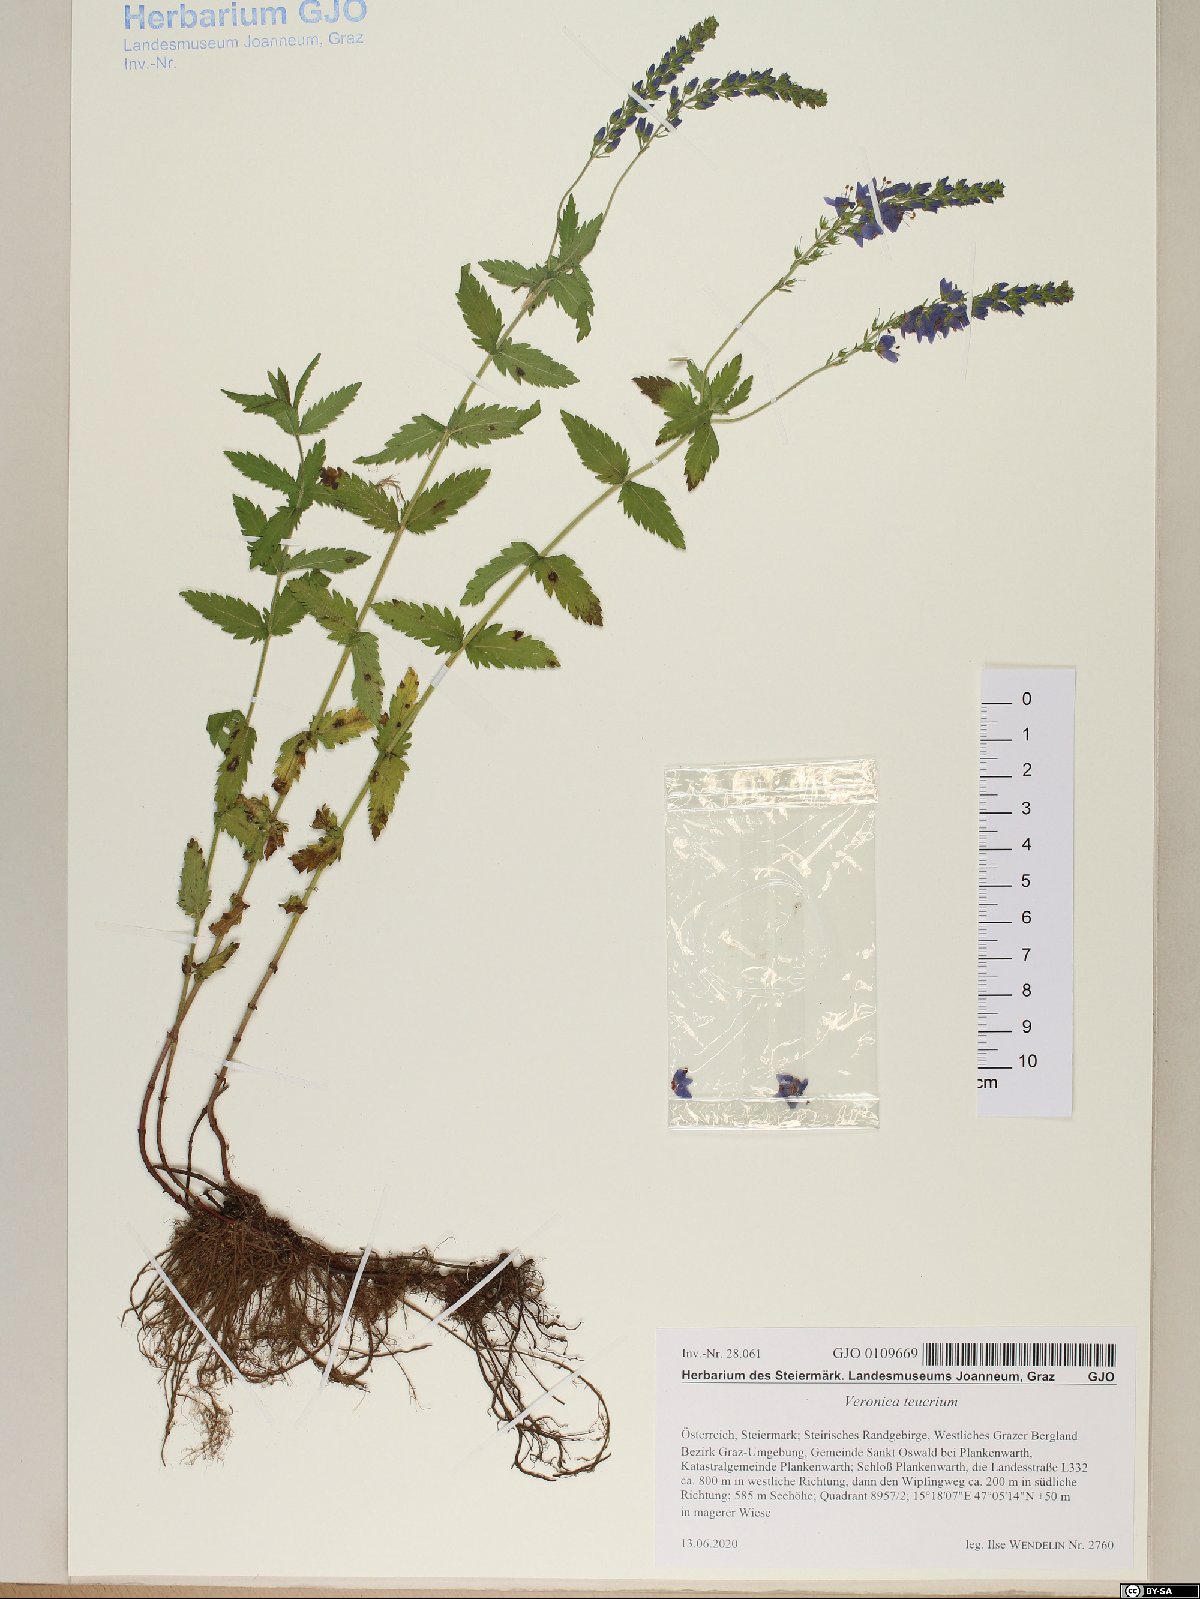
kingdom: Plantae
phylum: Tracheophyta
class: Magnoliopsida
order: Lamiales
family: Plantaginaceae
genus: Veronica
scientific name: Veronica teucrium
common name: Large speedwell
